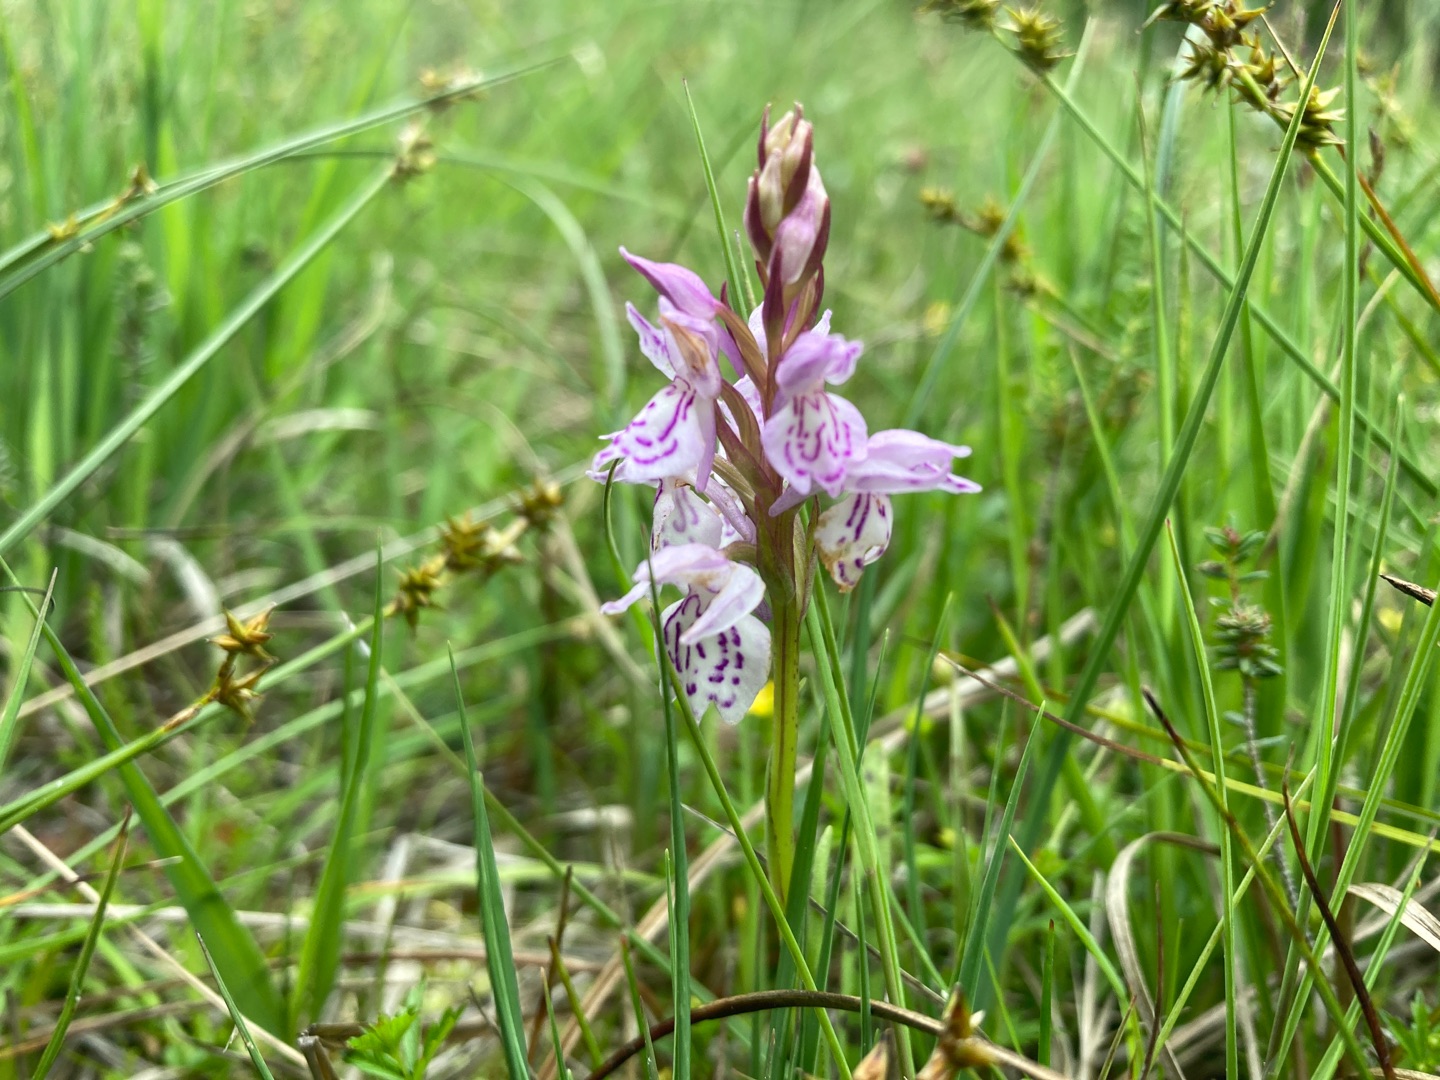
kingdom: Plantae
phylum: Tracheophyta
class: Liliopsida
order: Asparagales
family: Orchidaceae
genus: Dactylorhiza
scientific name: Dactylorhiza maculata
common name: Plettet gøgeurt
